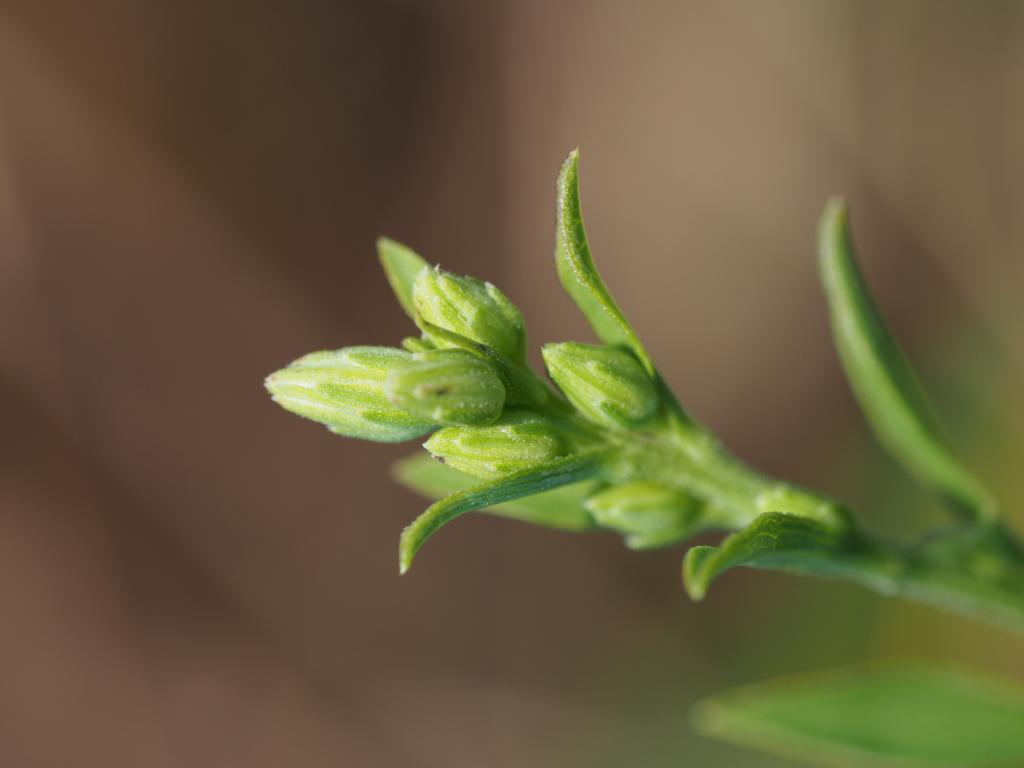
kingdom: Plantae
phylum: Tracheophyta
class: Magnoliopsida
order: Asterales
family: Asteraceae
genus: Solidago
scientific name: Solidago decurrens
